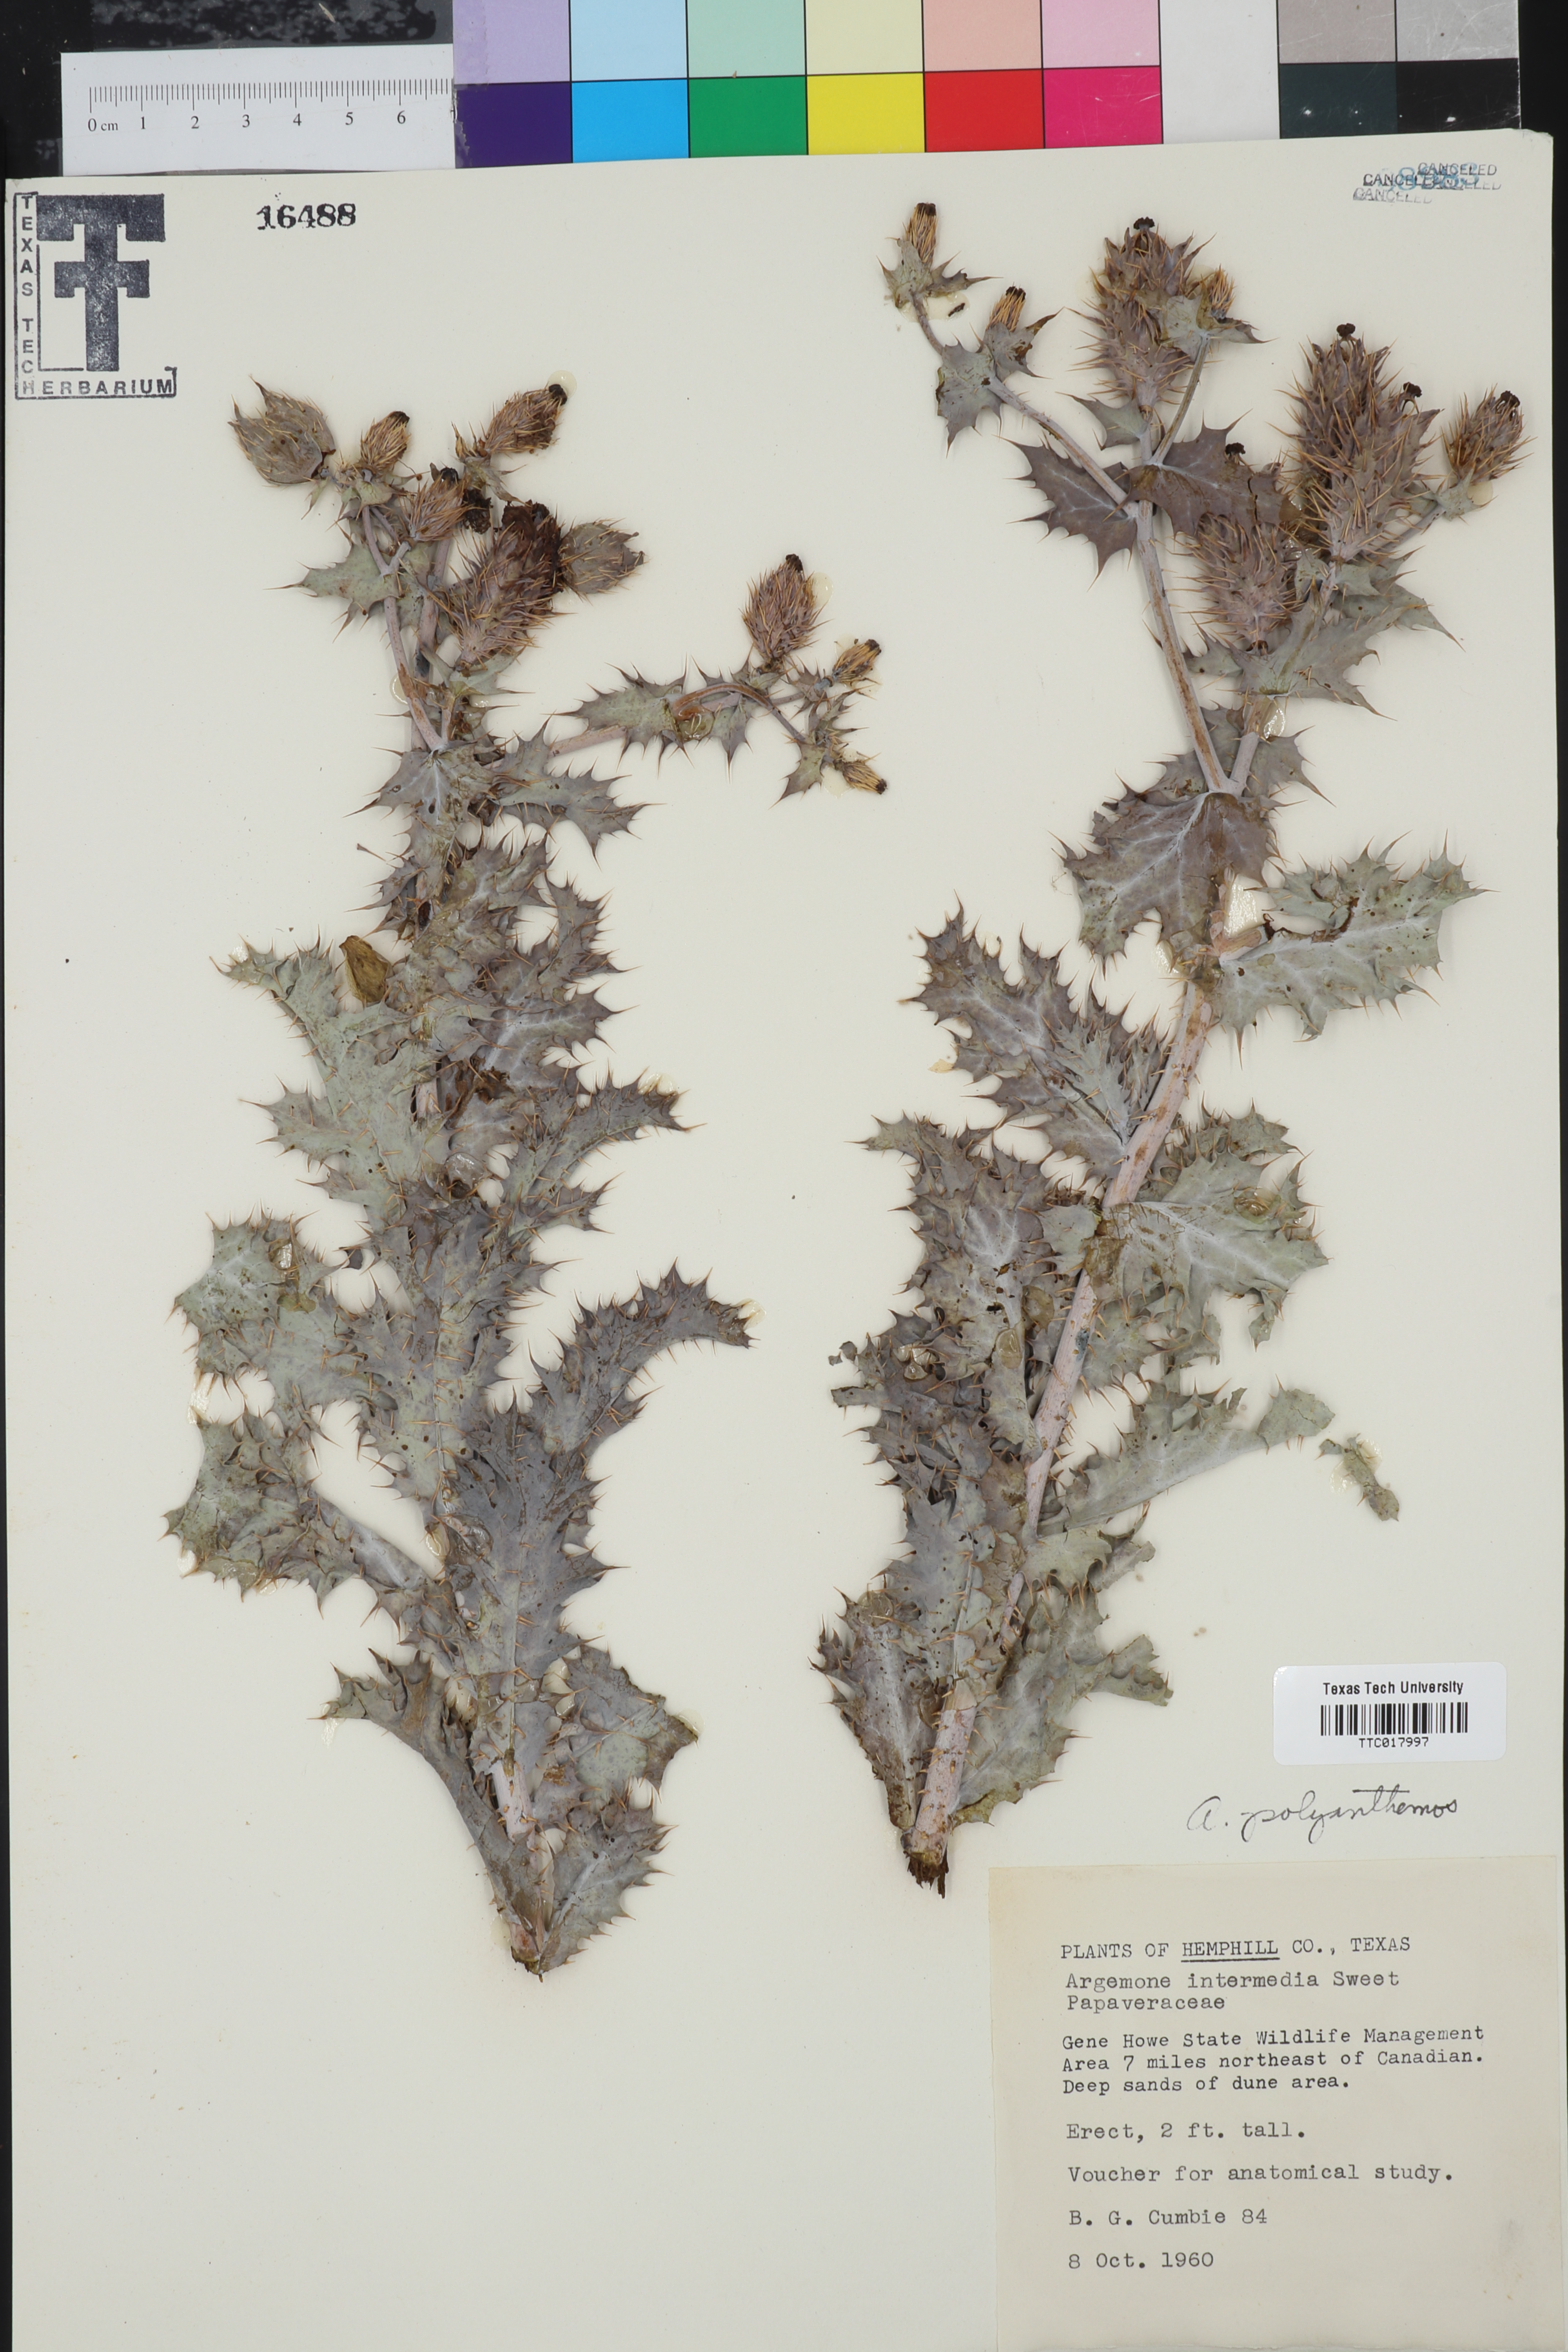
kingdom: Plantae
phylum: Tracheophyta
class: Magnoliopsida
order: Ranunculales
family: Papaveraceae
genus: Argemone
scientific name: Argemone intermedia
